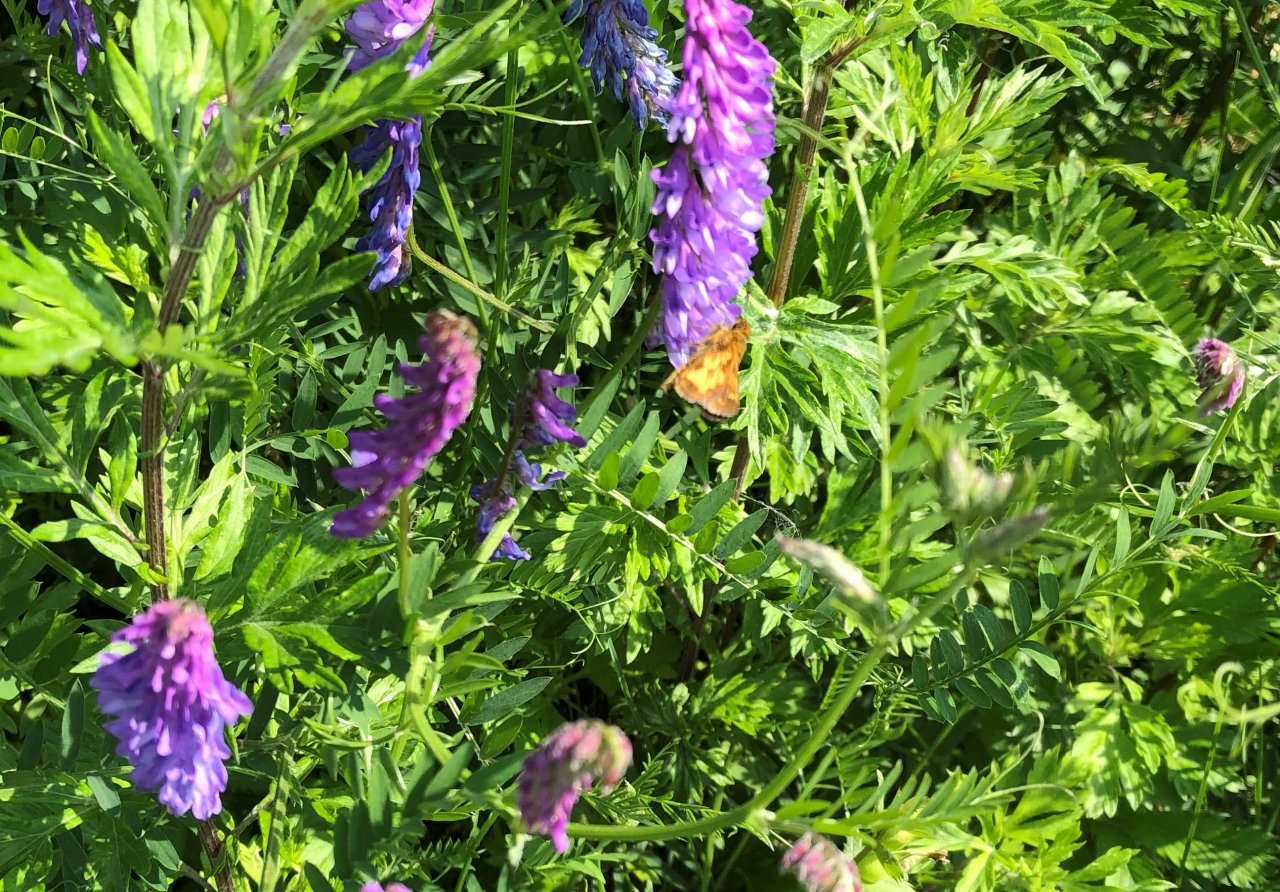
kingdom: Animalia
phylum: Arthropoda
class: Insecta
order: Lepidoptera
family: Hesperiidae
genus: Polites
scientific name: Polites coras
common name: Peck's Skipper
